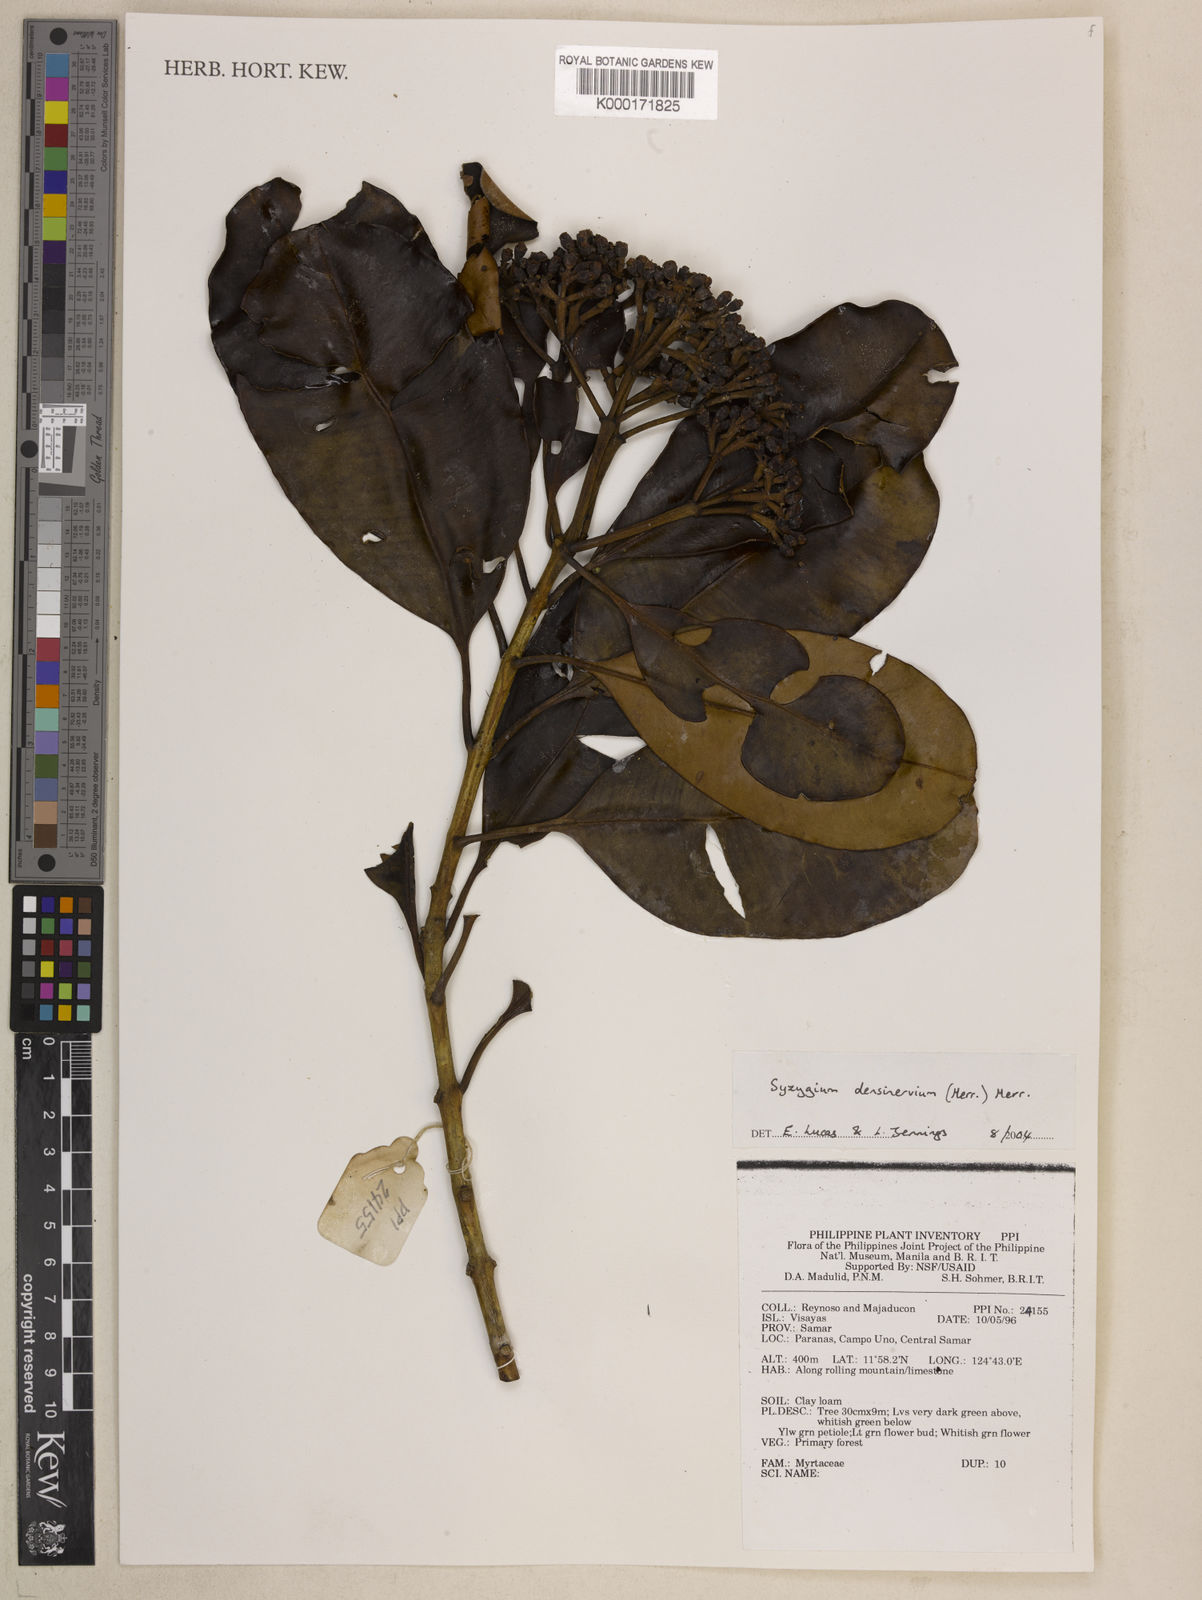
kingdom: Plantae
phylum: Tracheophyta
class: Magnoliopsida
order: Myrtales
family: Myrtaceae
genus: Syzygium
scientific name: Syzygium densinervium
